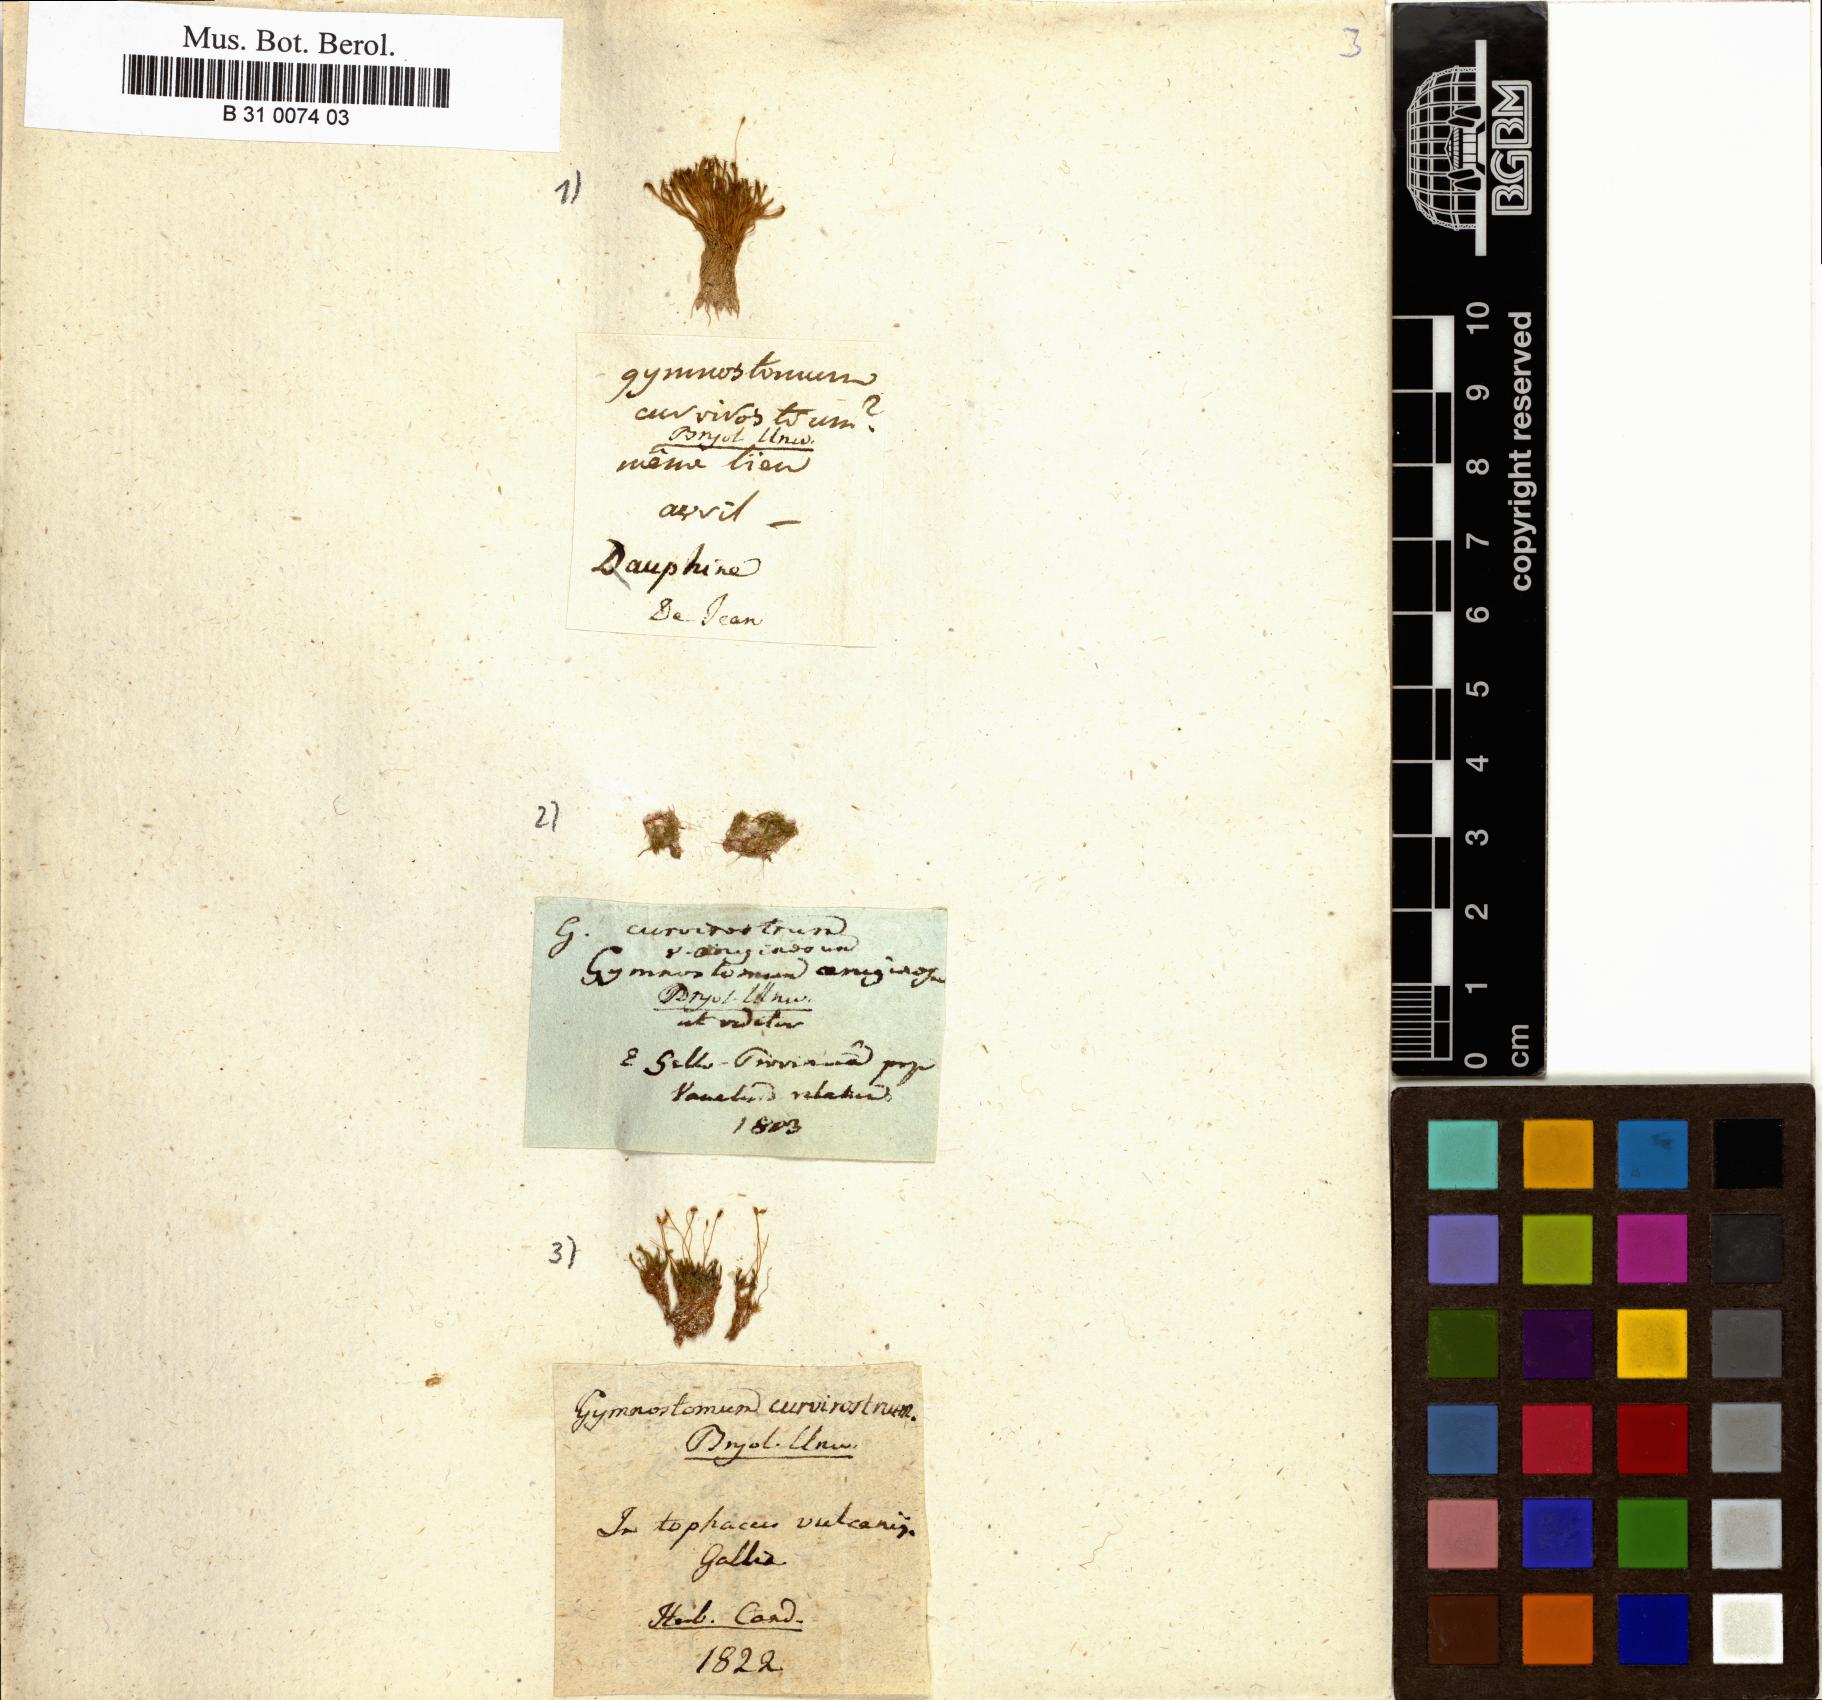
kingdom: Plantae
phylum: Bryophyta
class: Bryopsida
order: Pottiales
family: Pottiaceae
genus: Hymenostylium
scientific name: Hymenostylium recurvirostrum
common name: Hook-beak tufa-moss
